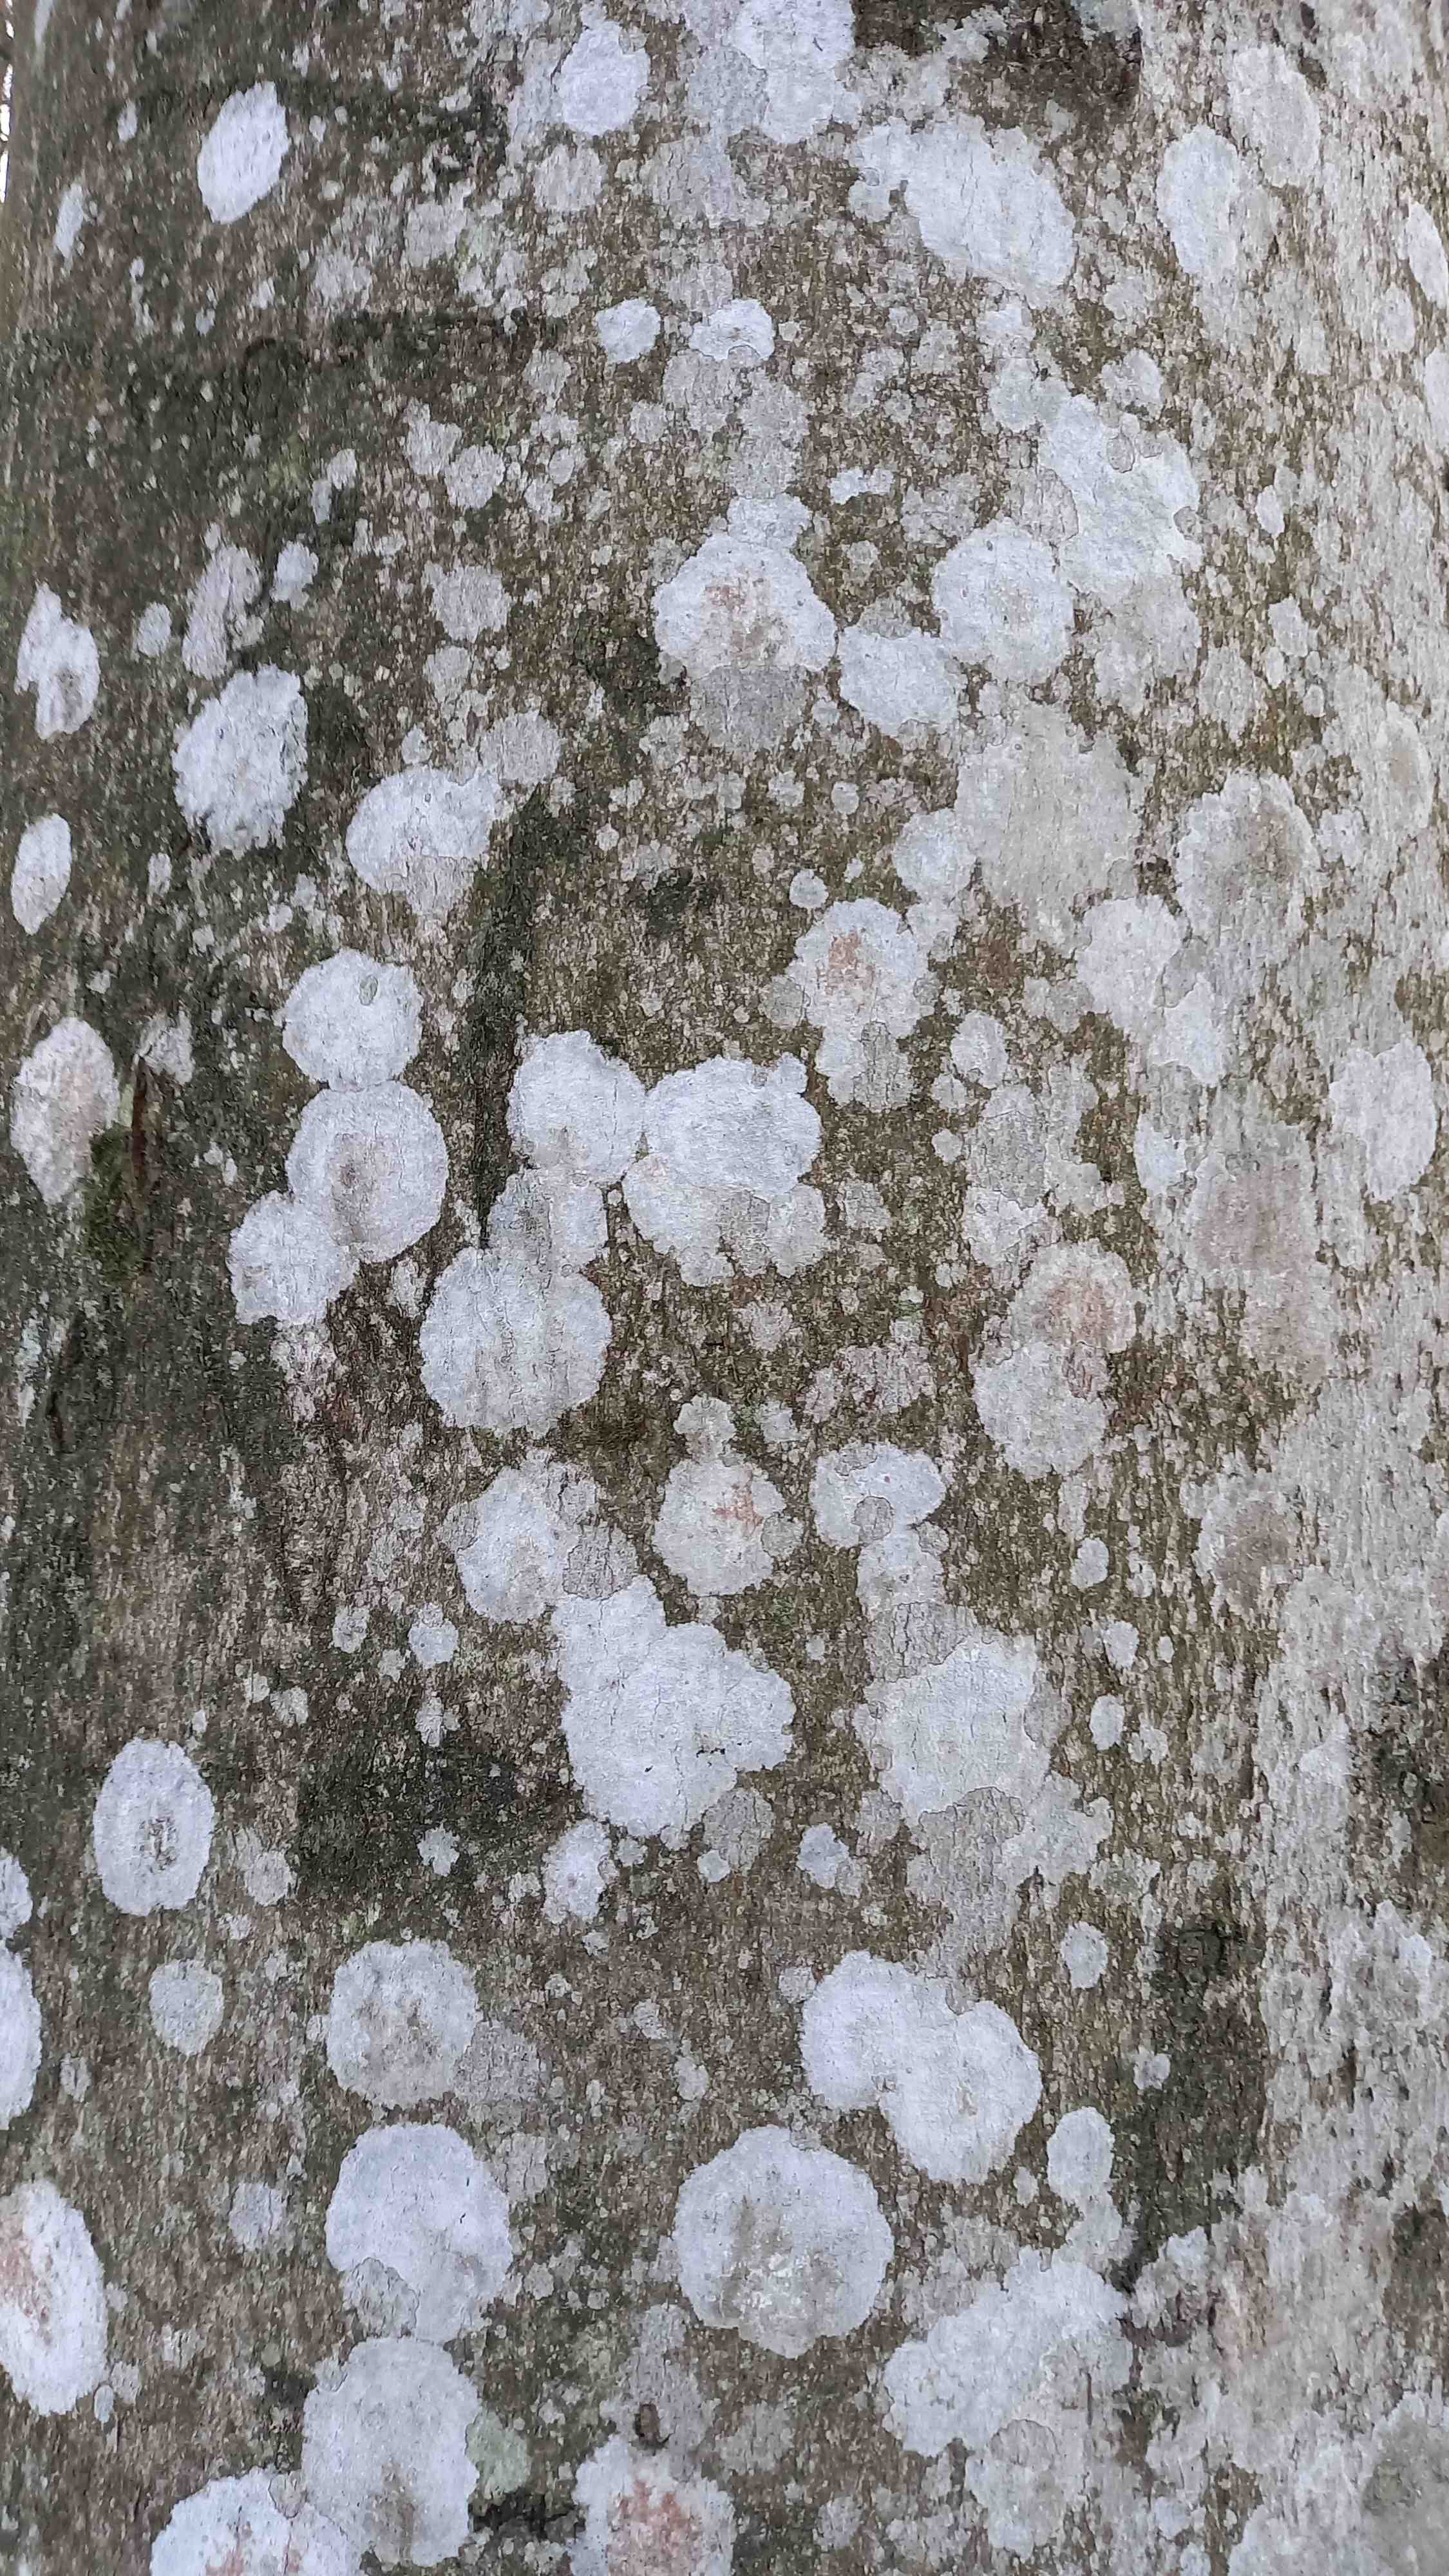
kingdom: Fungi
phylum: Ascomycota
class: Lecanoromycetes
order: Ostropales
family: Phlyctidaceae
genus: Phlyctis
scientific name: Phlyctis argena
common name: almindelig sølvlav
